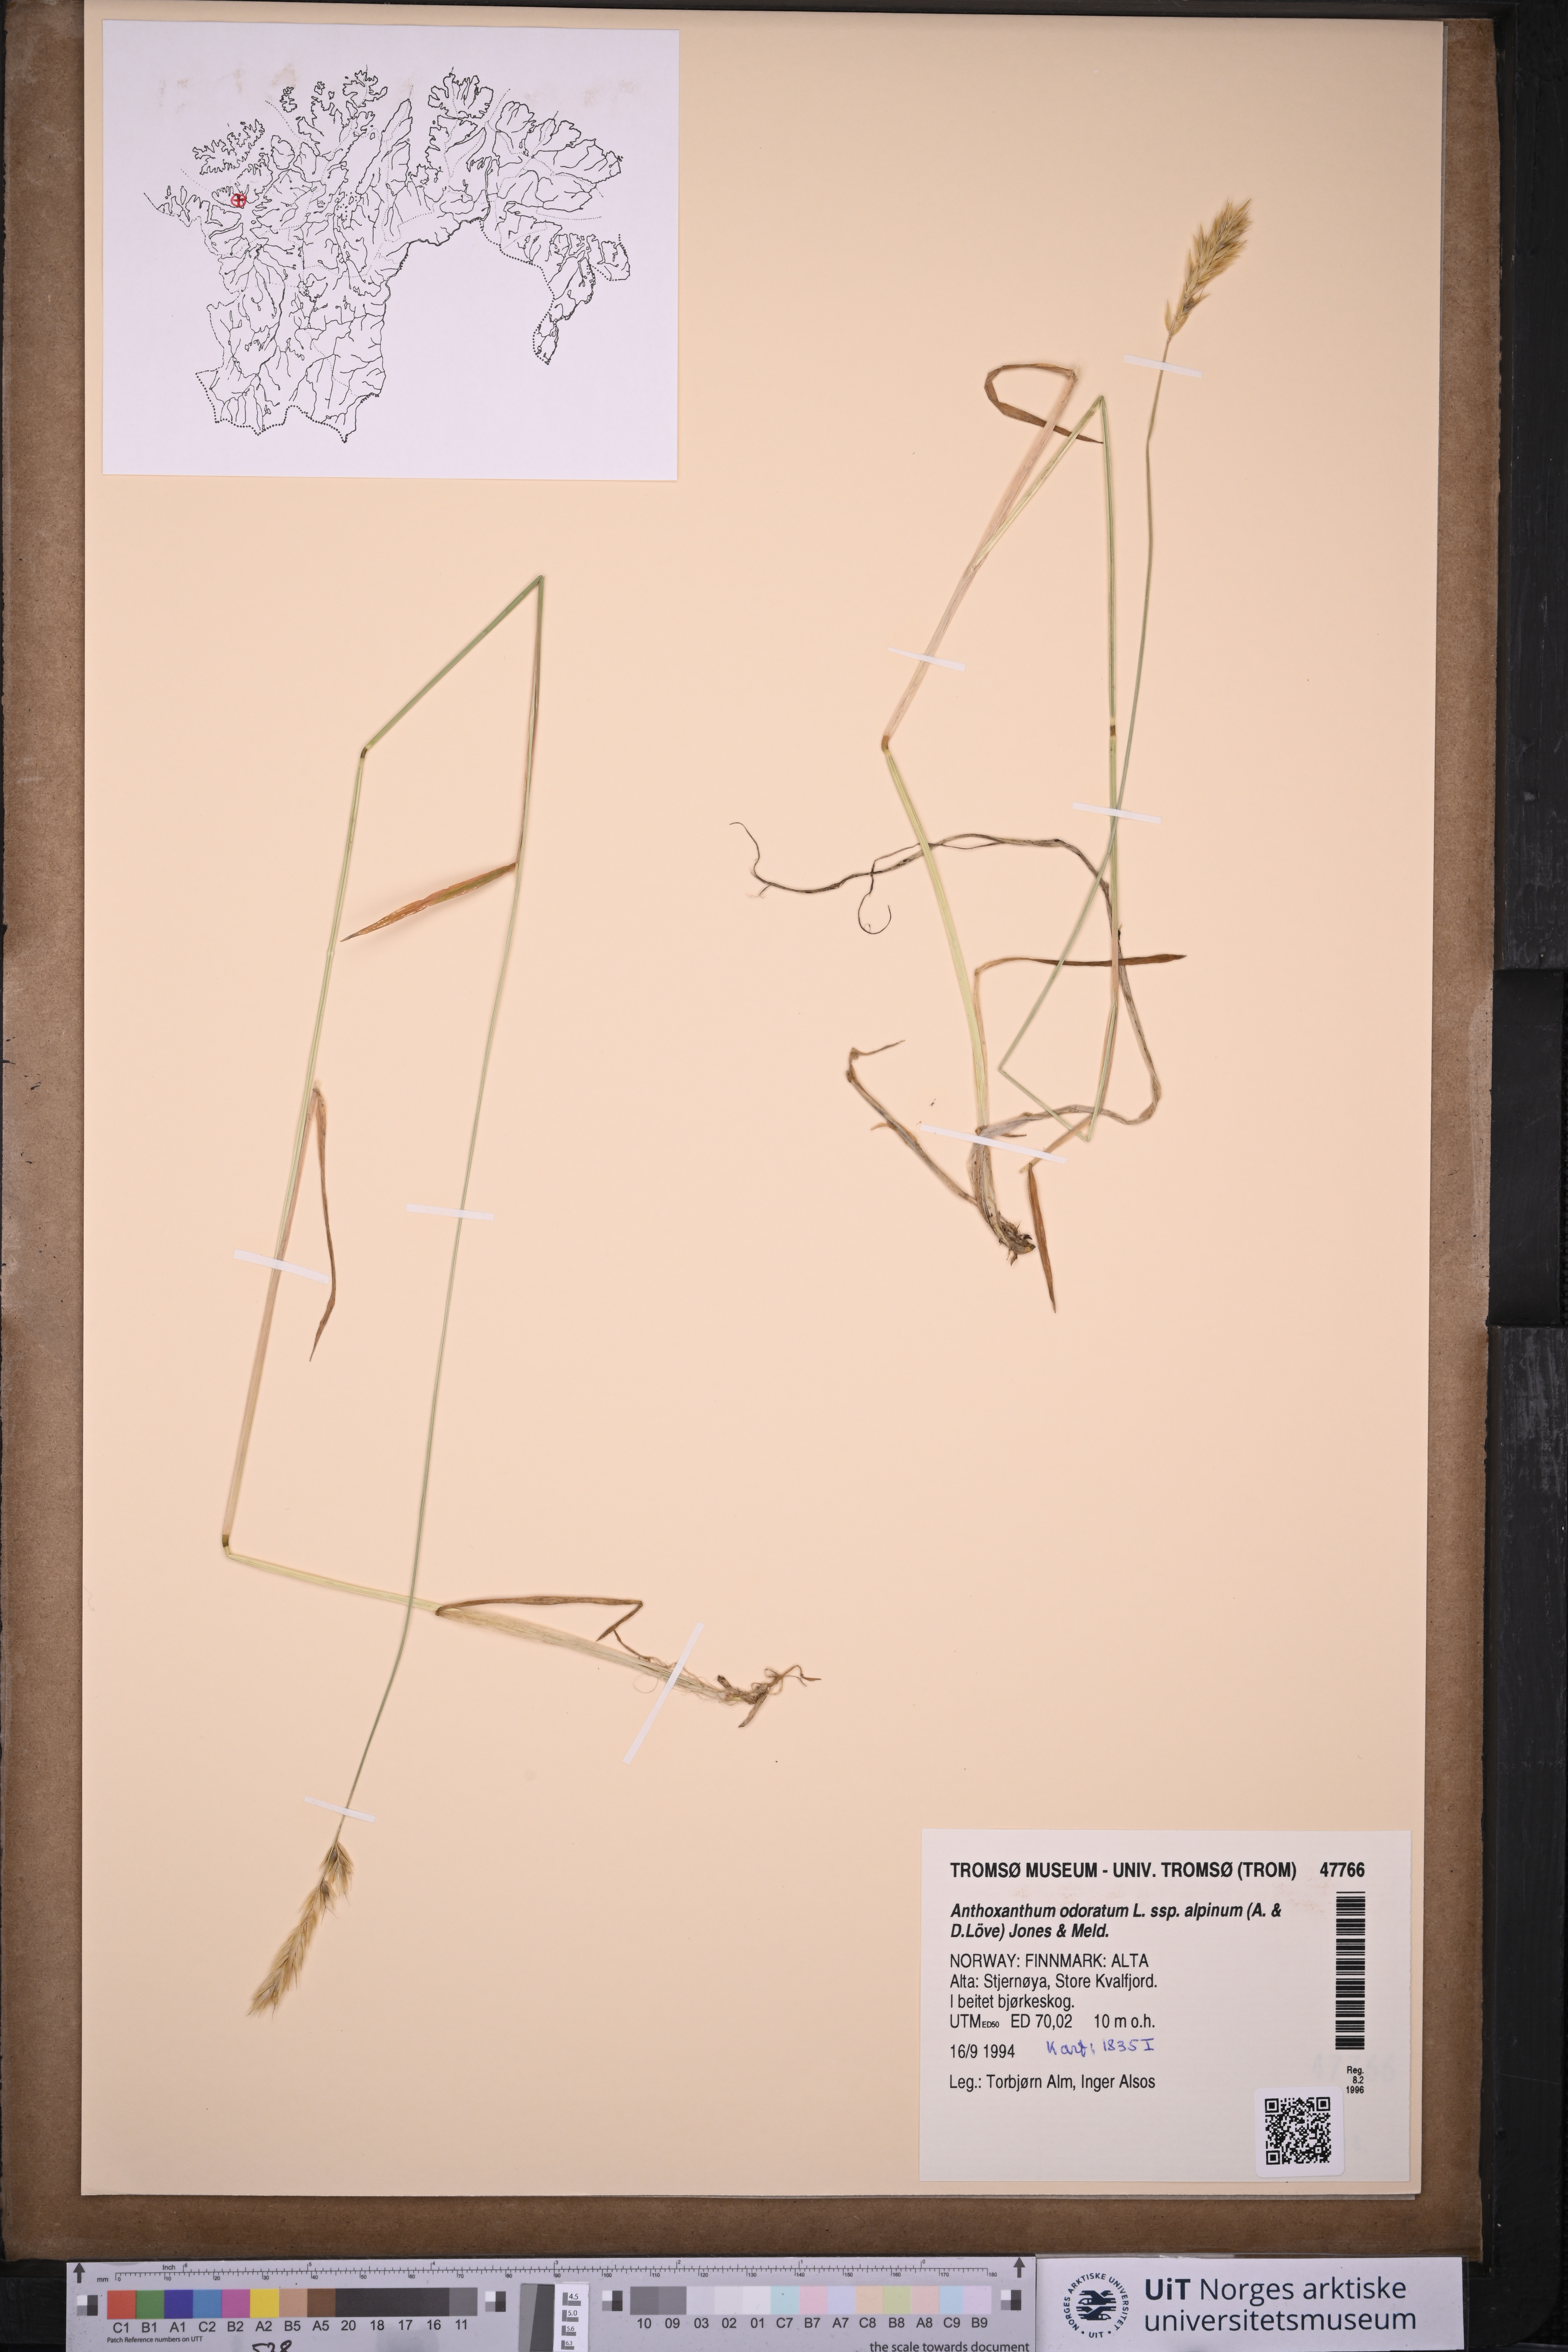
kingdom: Plantae
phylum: Tracheophyta
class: Liliopsida
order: Poales
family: Poaceae
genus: Anthoxanthum
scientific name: Anthoxanthum nipponicum
